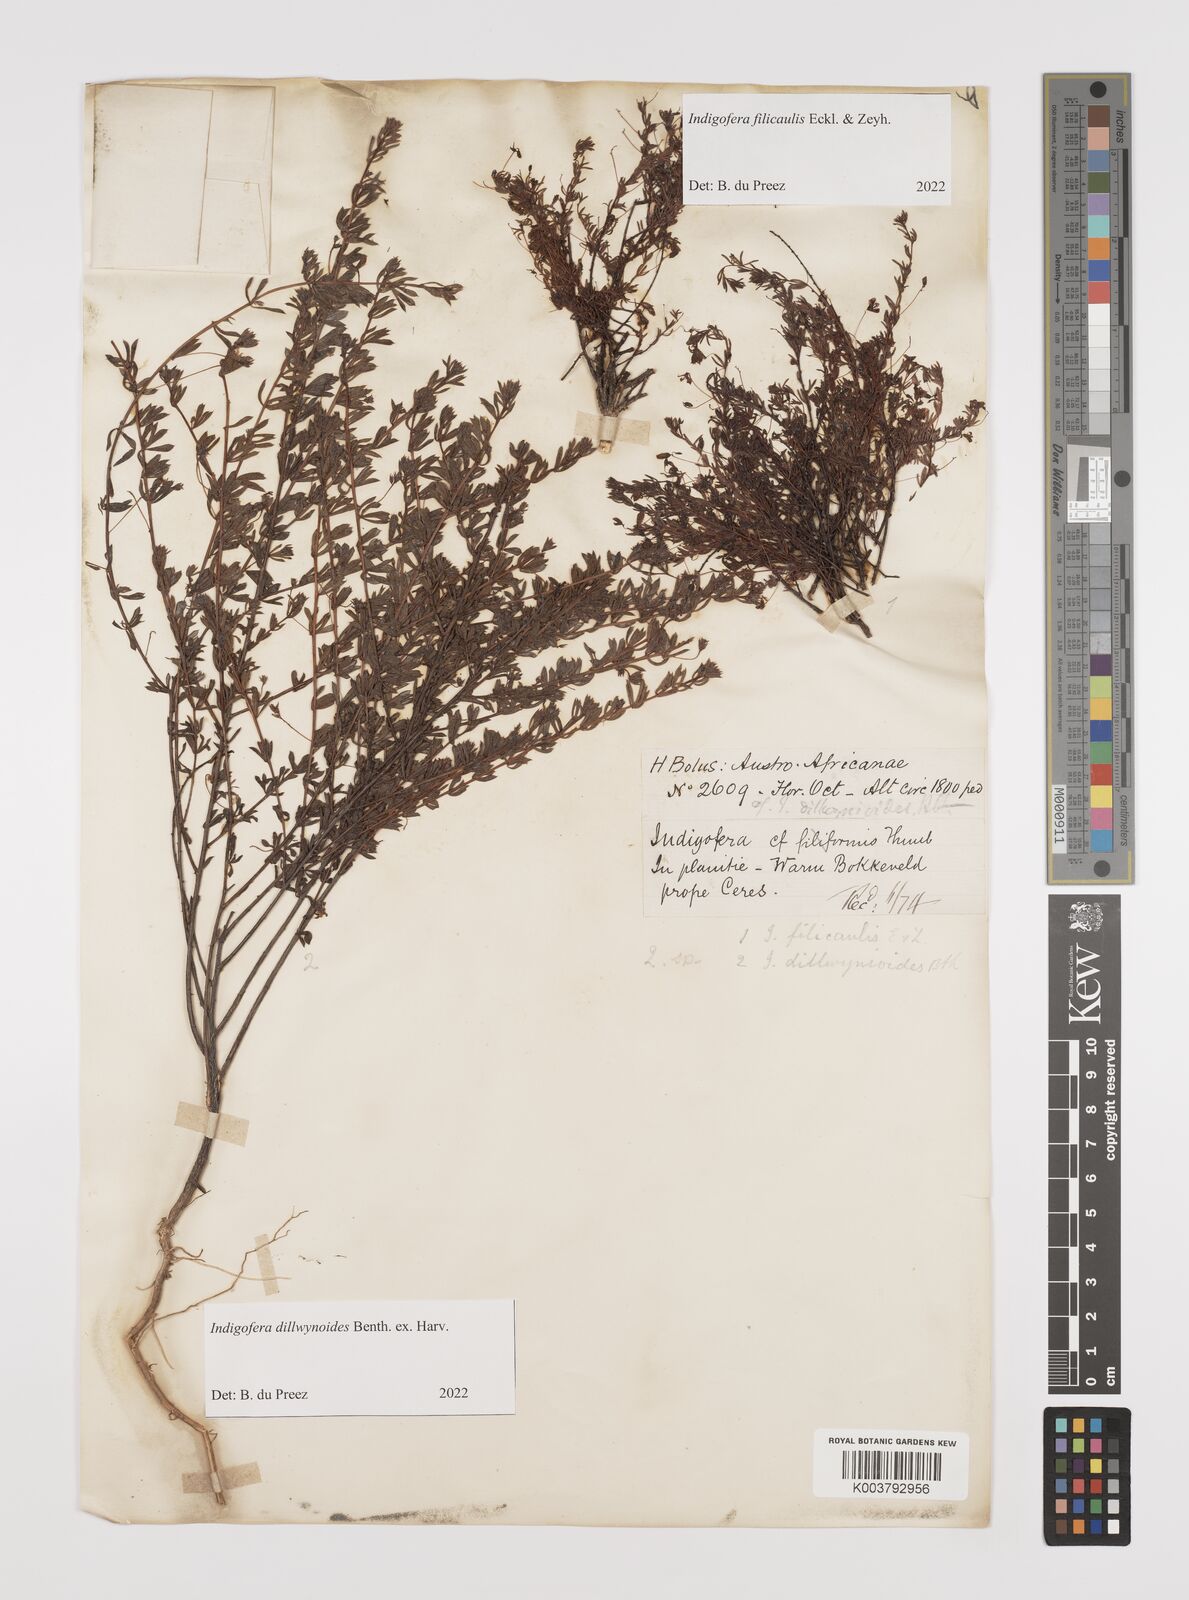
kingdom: Plantae
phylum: Tracheophyta
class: Magnoliopsida
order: Fabales
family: Fabaceae
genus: Indigofera
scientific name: Indigofera filicaulis
